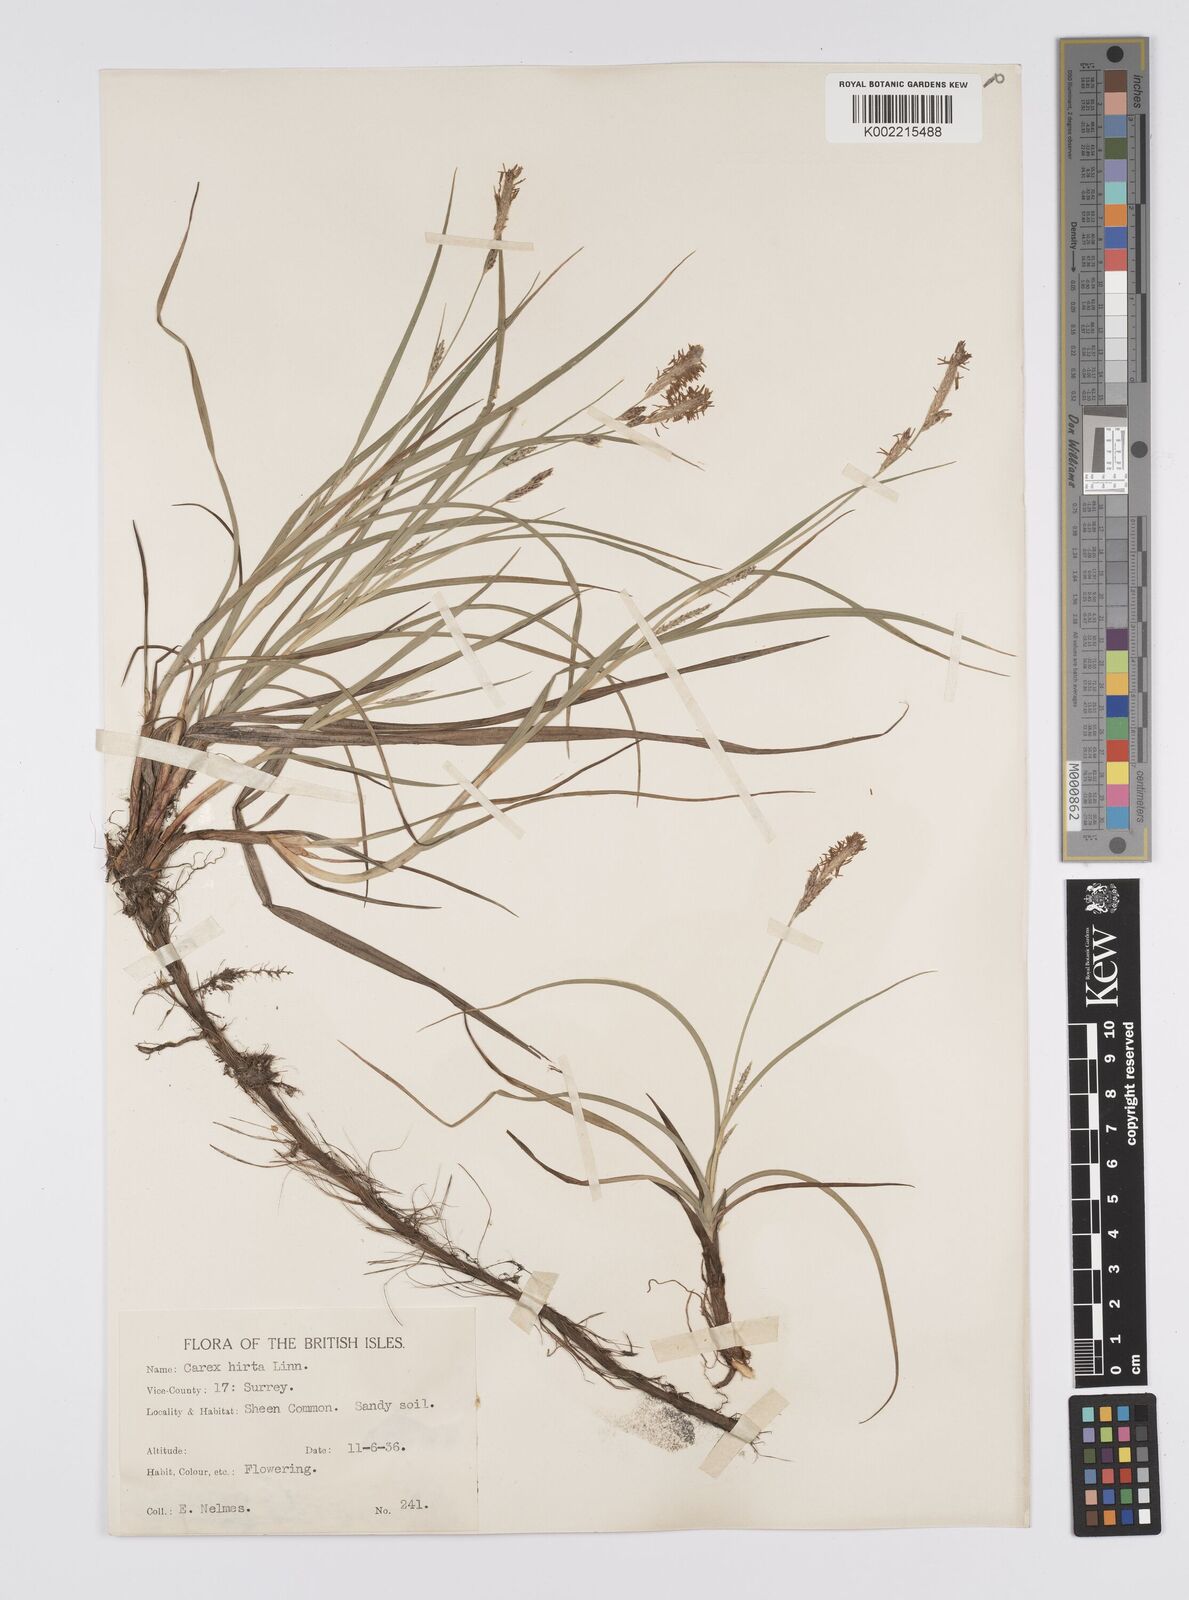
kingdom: Plantae
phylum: Tracheophyta
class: Liliopsida
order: Poales
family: Cyperaceae
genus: Carex
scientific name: Carex hirta
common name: Hairy sedge
